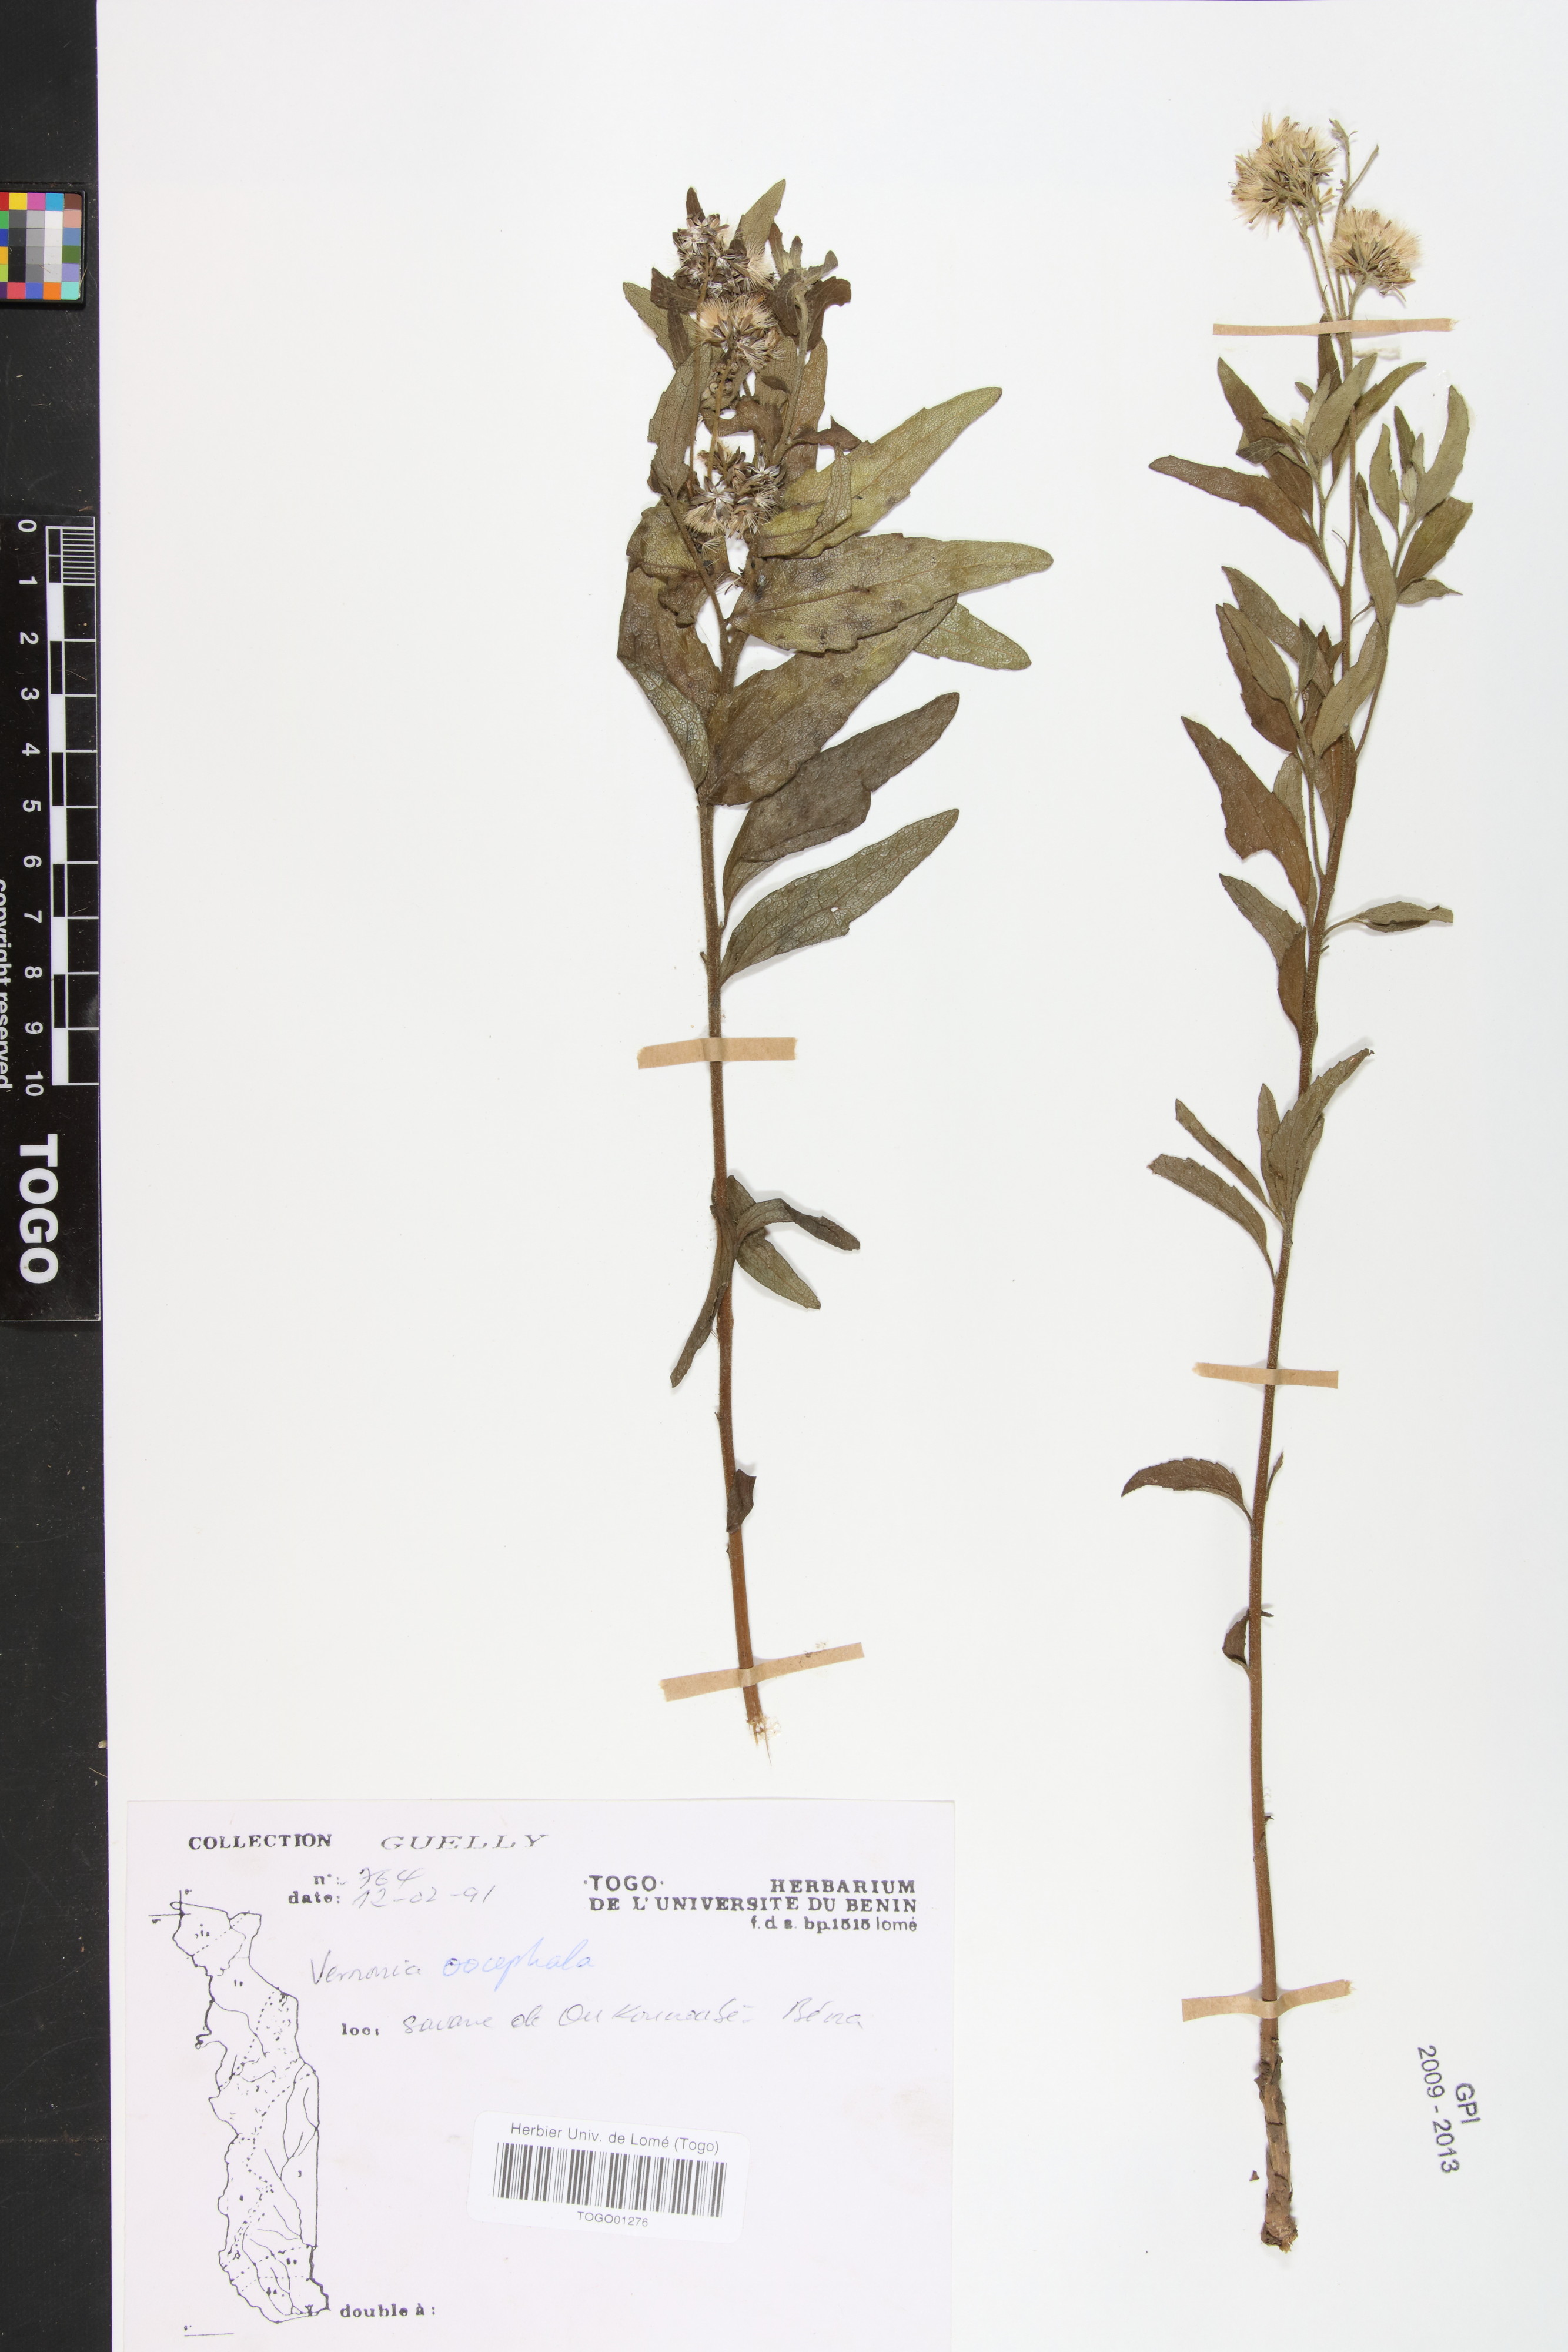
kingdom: Plantae
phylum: Tracheophyta
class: Magnoliopsida
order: Asterales
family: Asteraceae
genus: Oocephala
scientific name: Oocephala stenocephala
